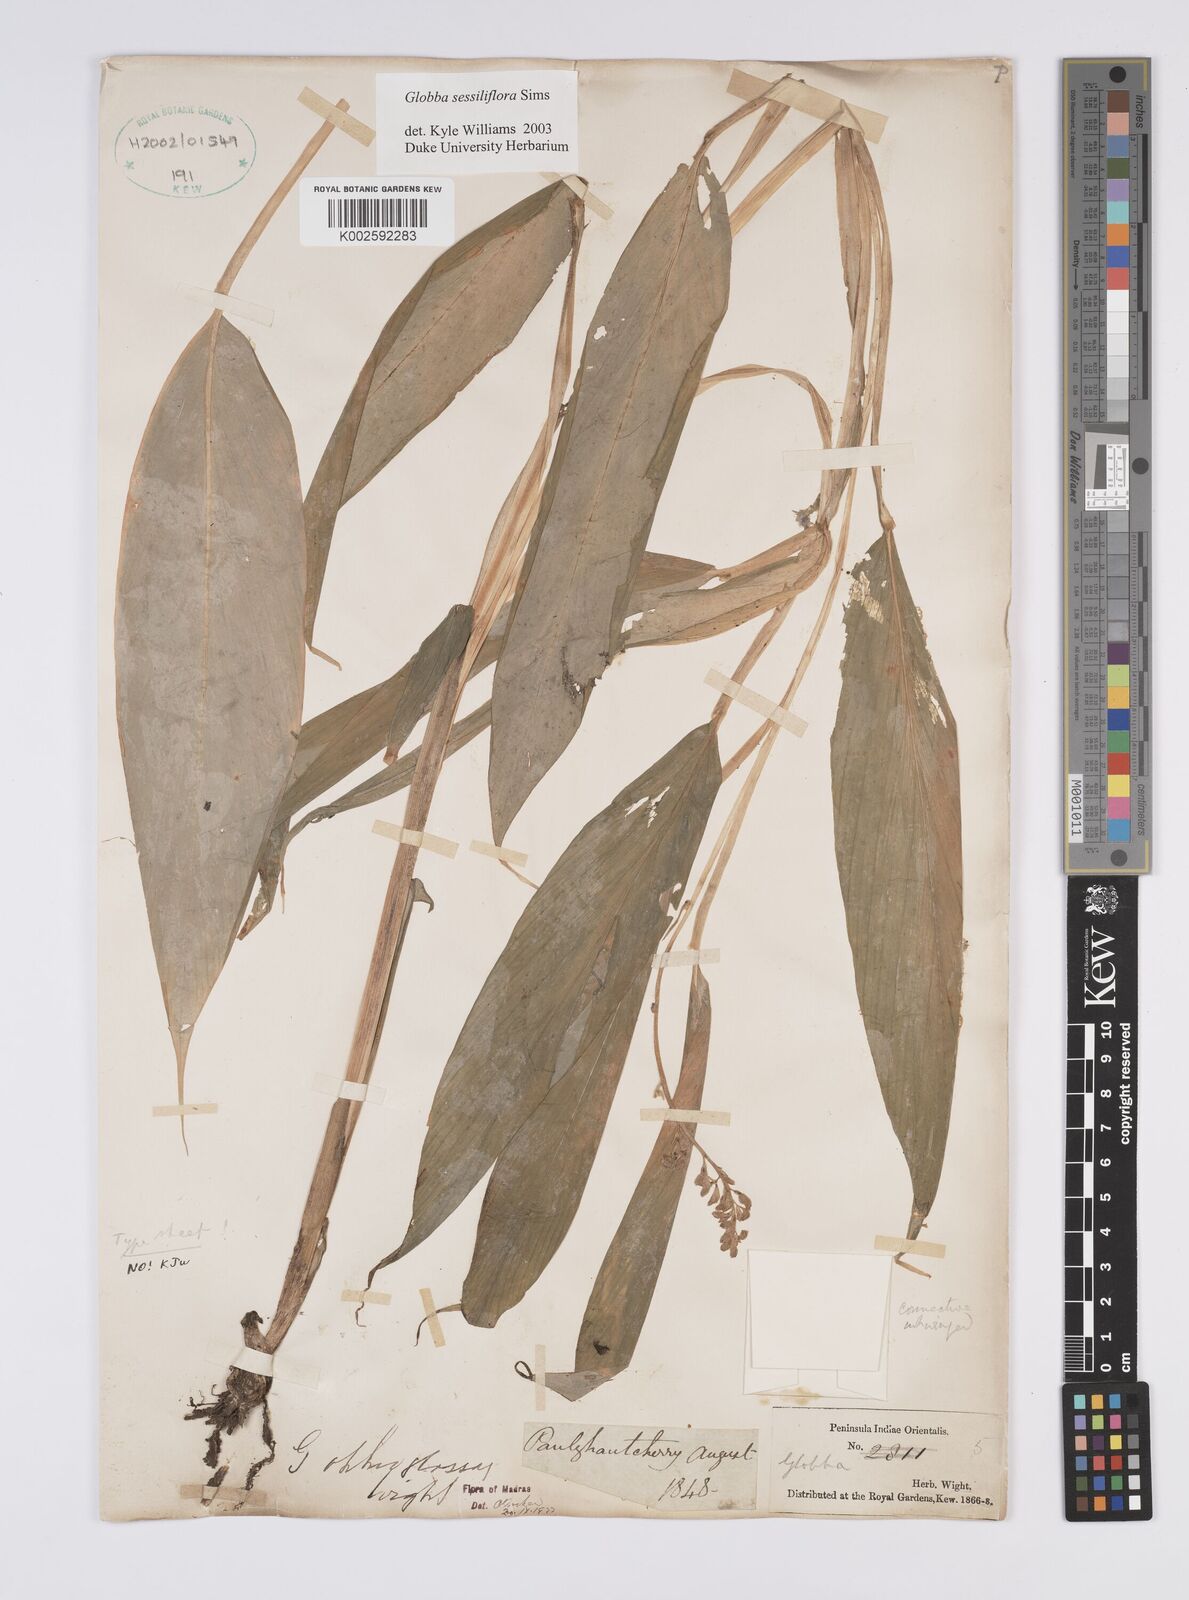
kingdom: Plantae
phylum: Tracheophyta
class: Liliopsida
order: Zingiberales
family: Zingiberaceae
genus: Globba
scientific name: Globba sessiliflora
